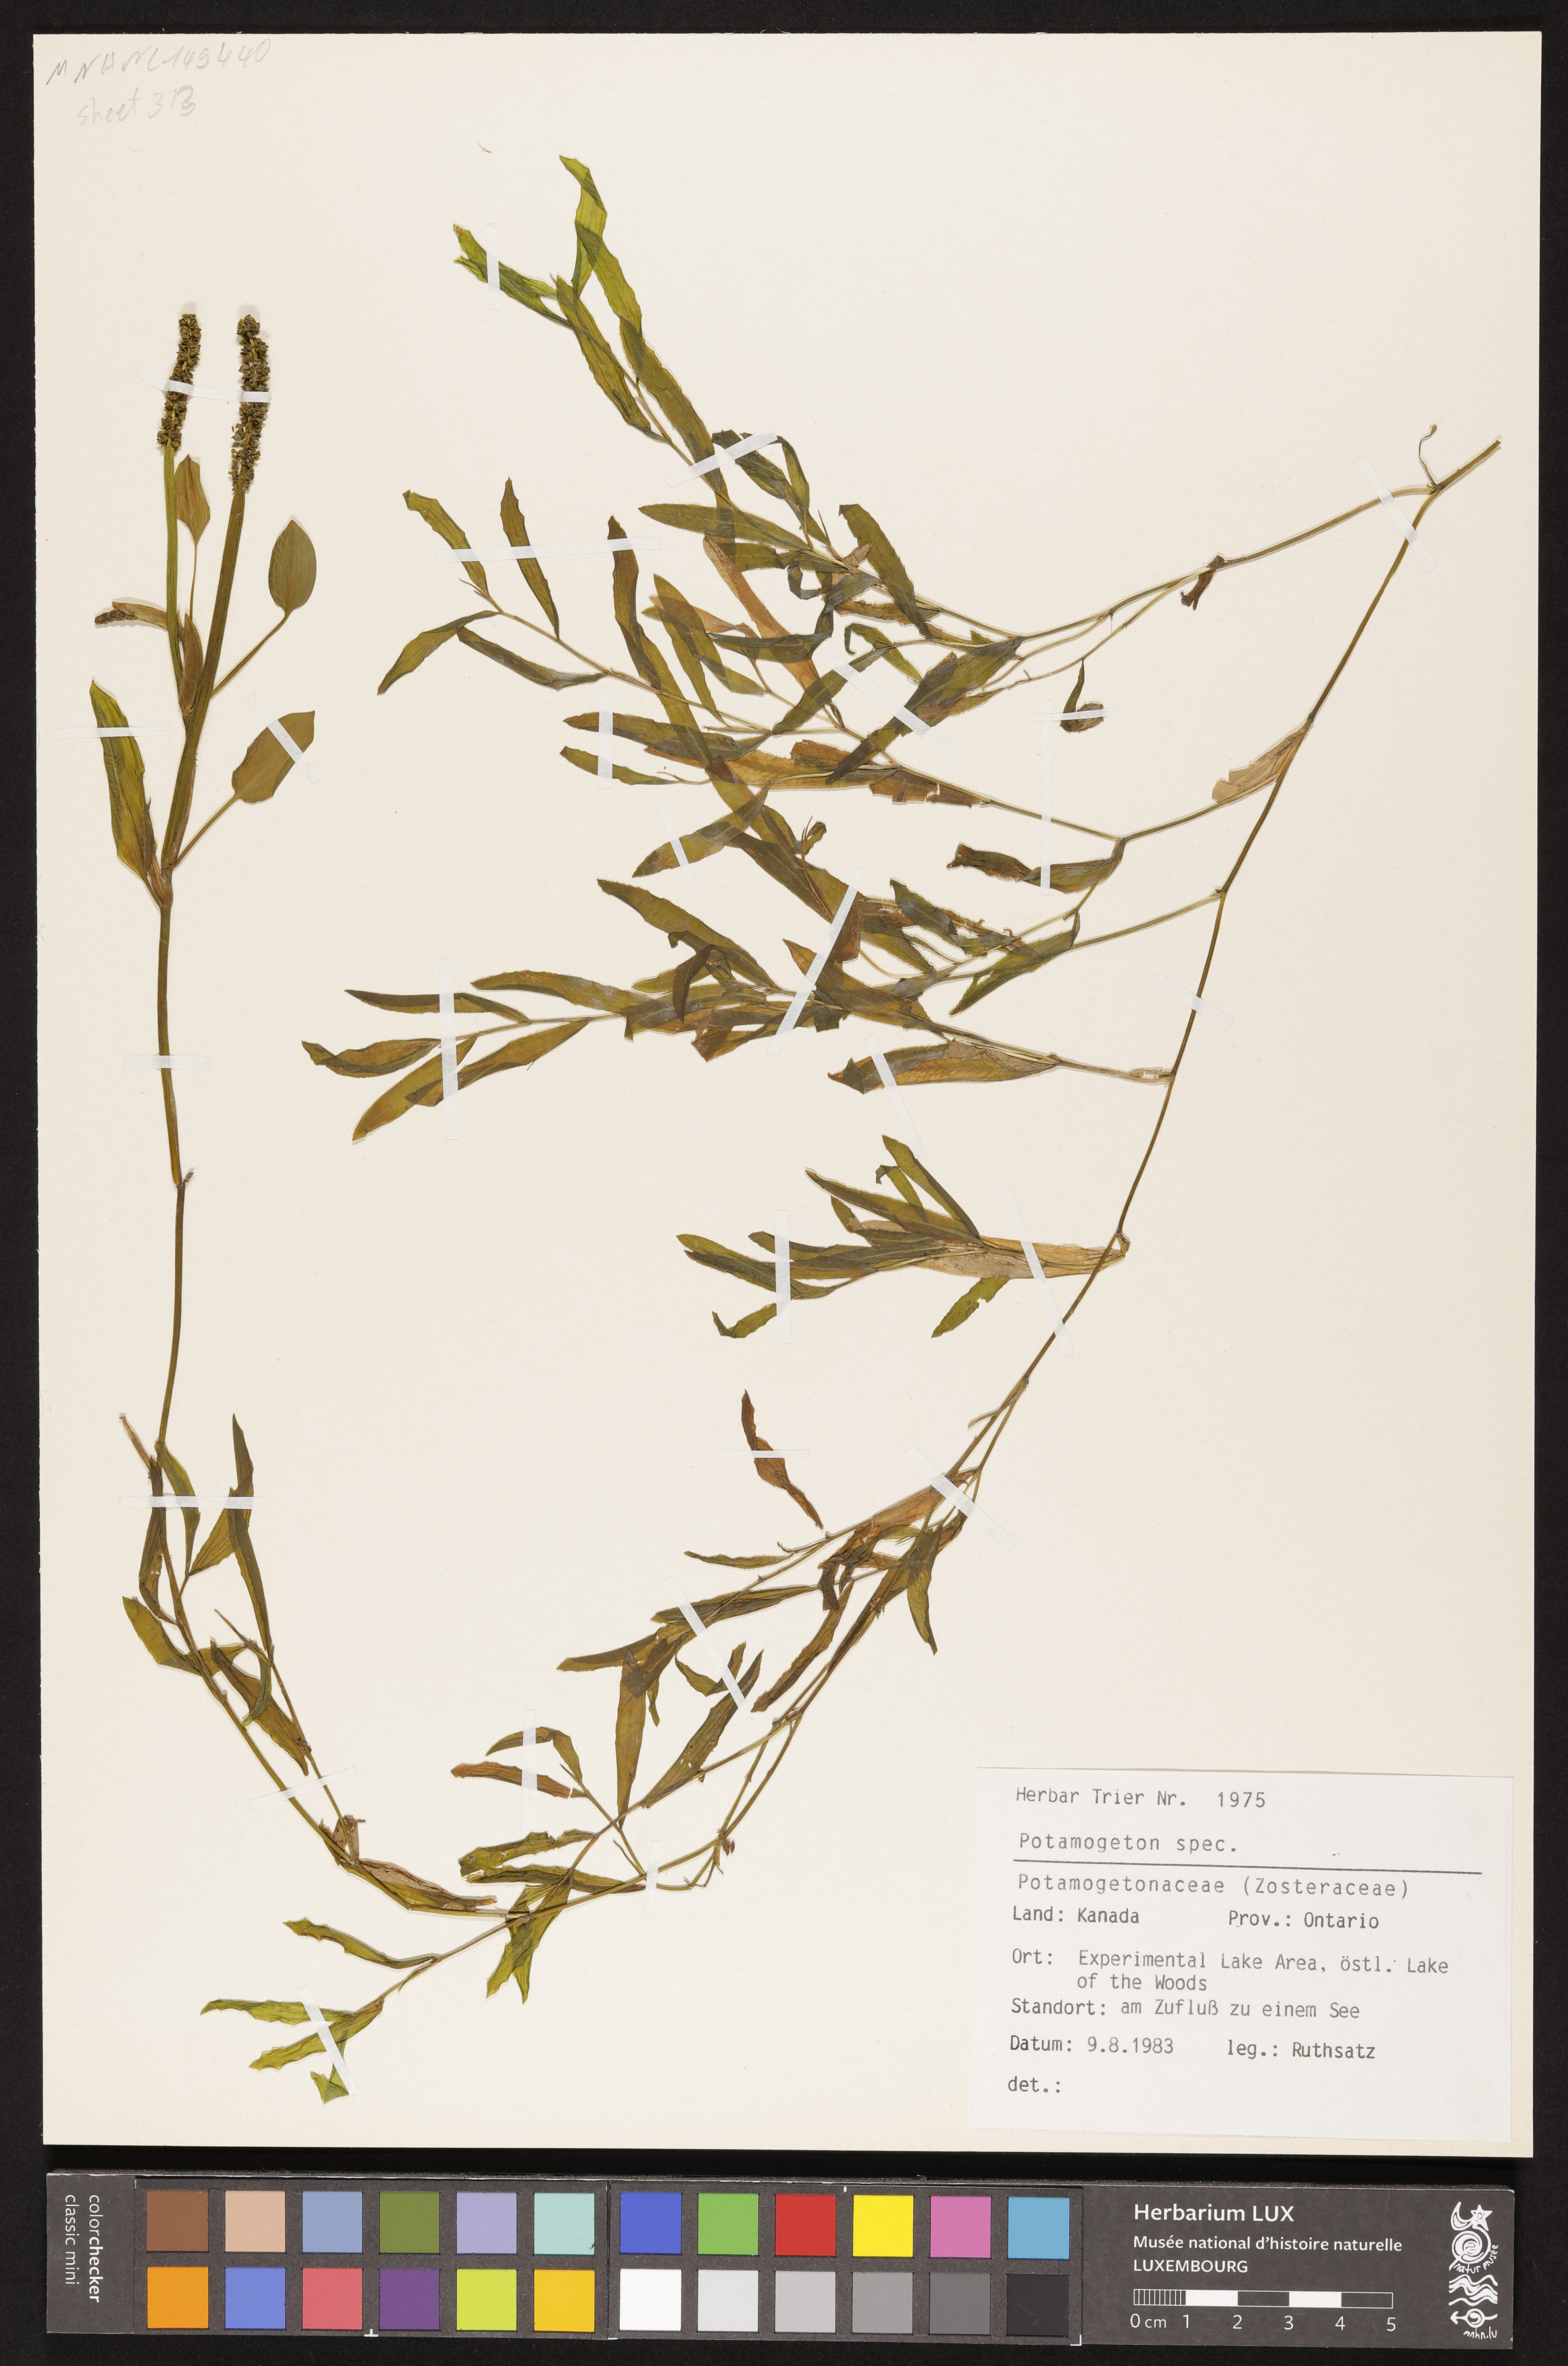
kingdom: Plantae
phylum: Tracheophyta
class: Liliopsida
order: Alismatales
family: Potamogetonaceae
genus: Potamogeton
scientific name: Potamogeton
